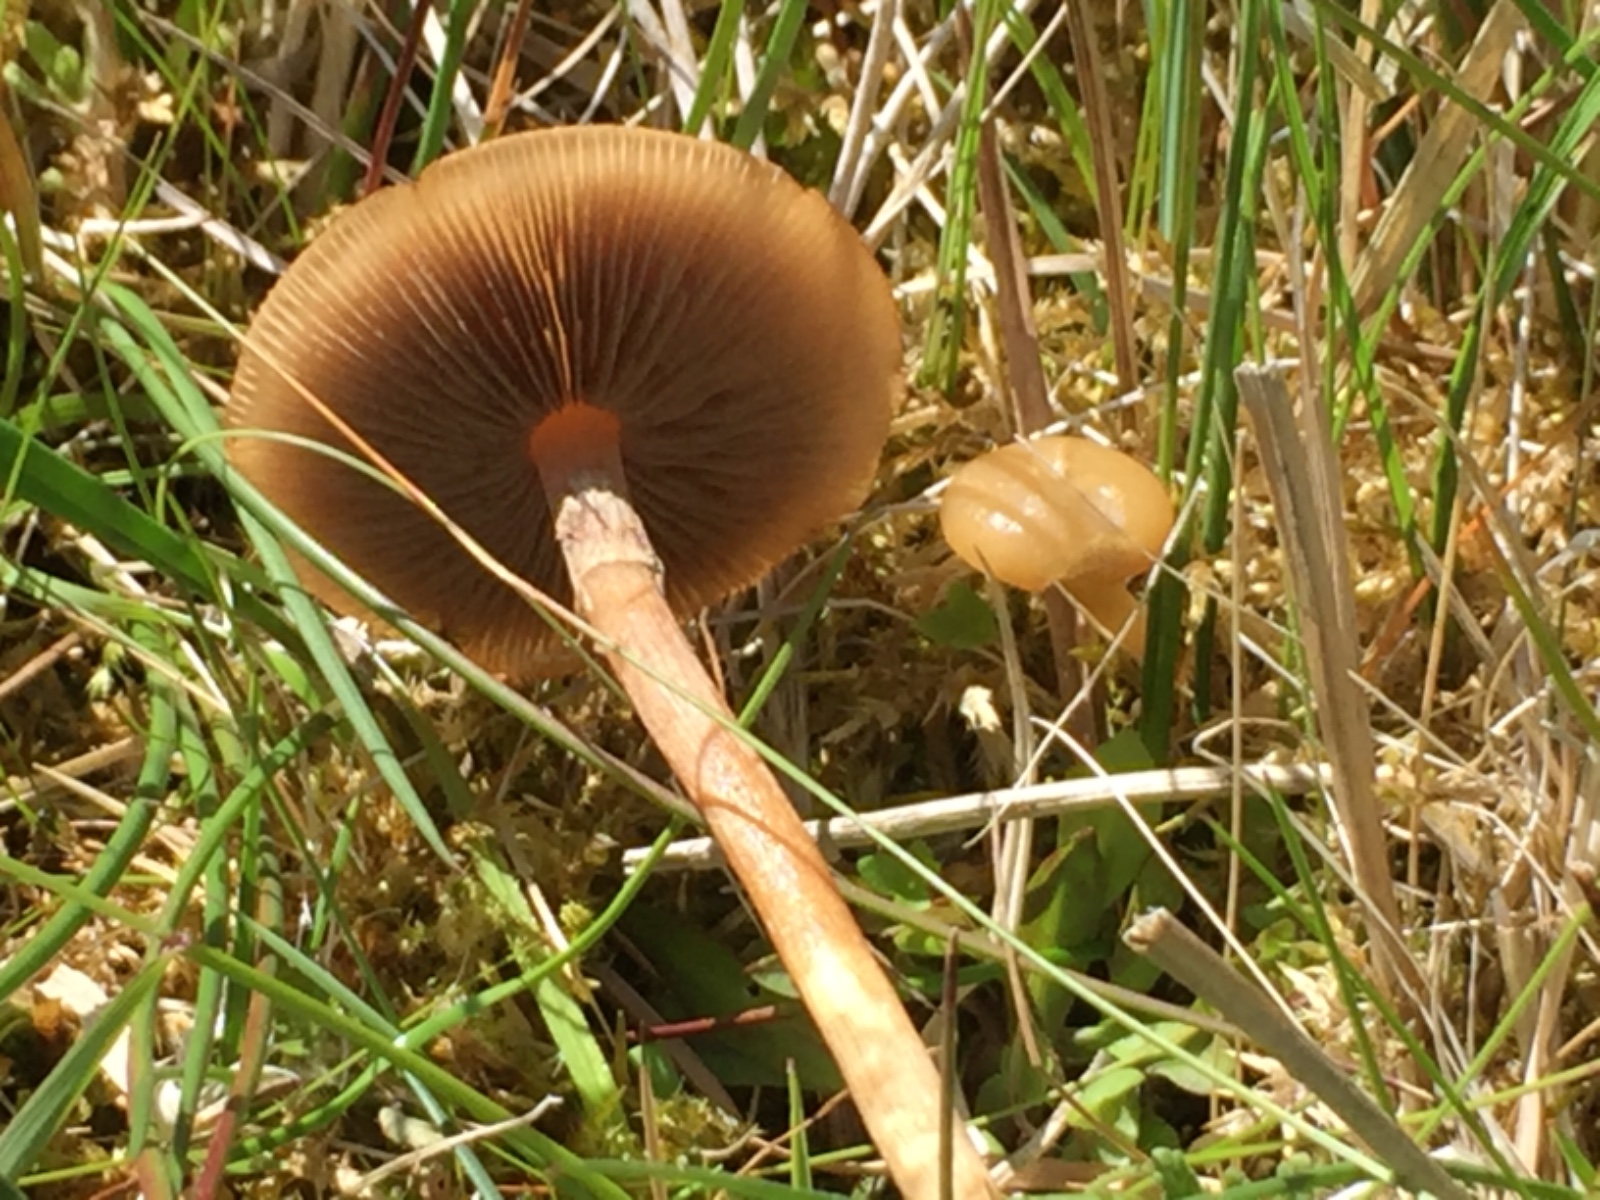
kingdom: Fungi
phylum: Basidiomycota
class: Agaricomycetes
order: Agaricales
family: Strophariaceae
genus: Agrocybe
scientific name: Agrocybe elatella
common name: mose-agerhat
